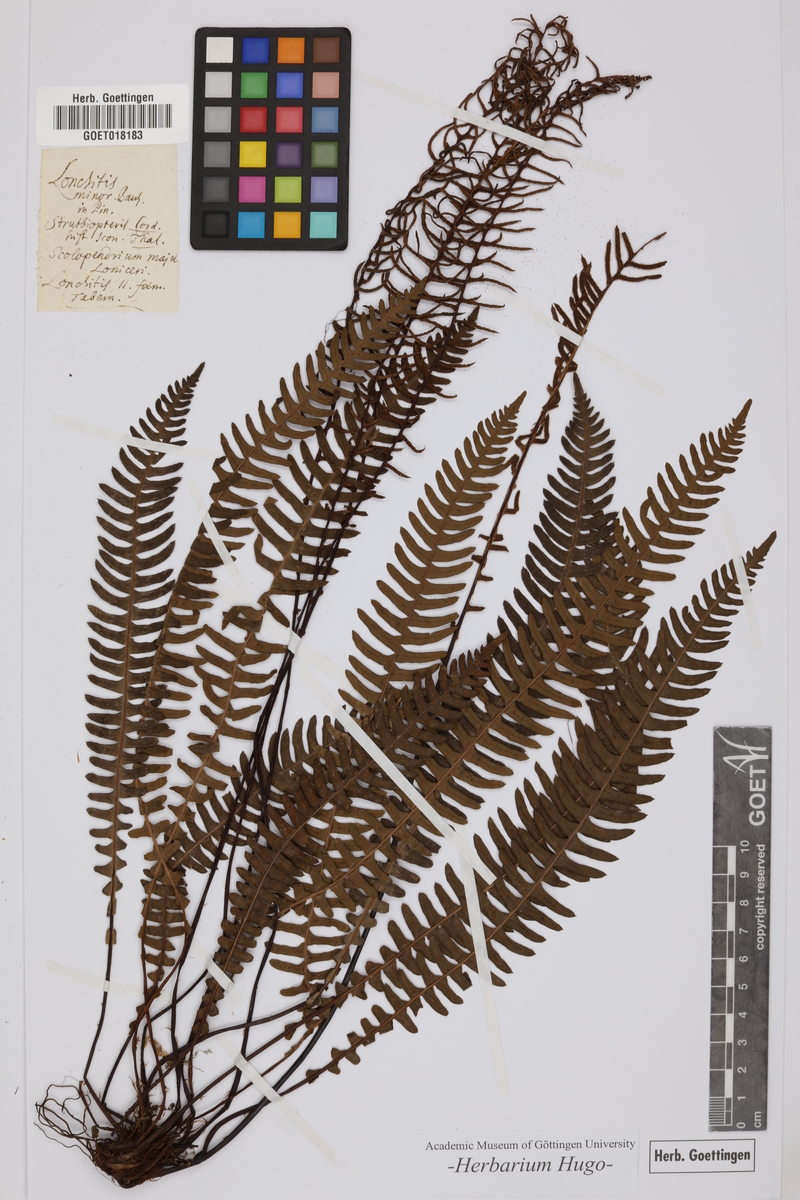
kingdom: Plantae
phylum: Tracheophyta
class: Polypodiopsida
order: Polypodiales
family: Blechnaceae
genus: Struthiopteris
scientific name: Struthiopteris spicant
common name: Deer fern
